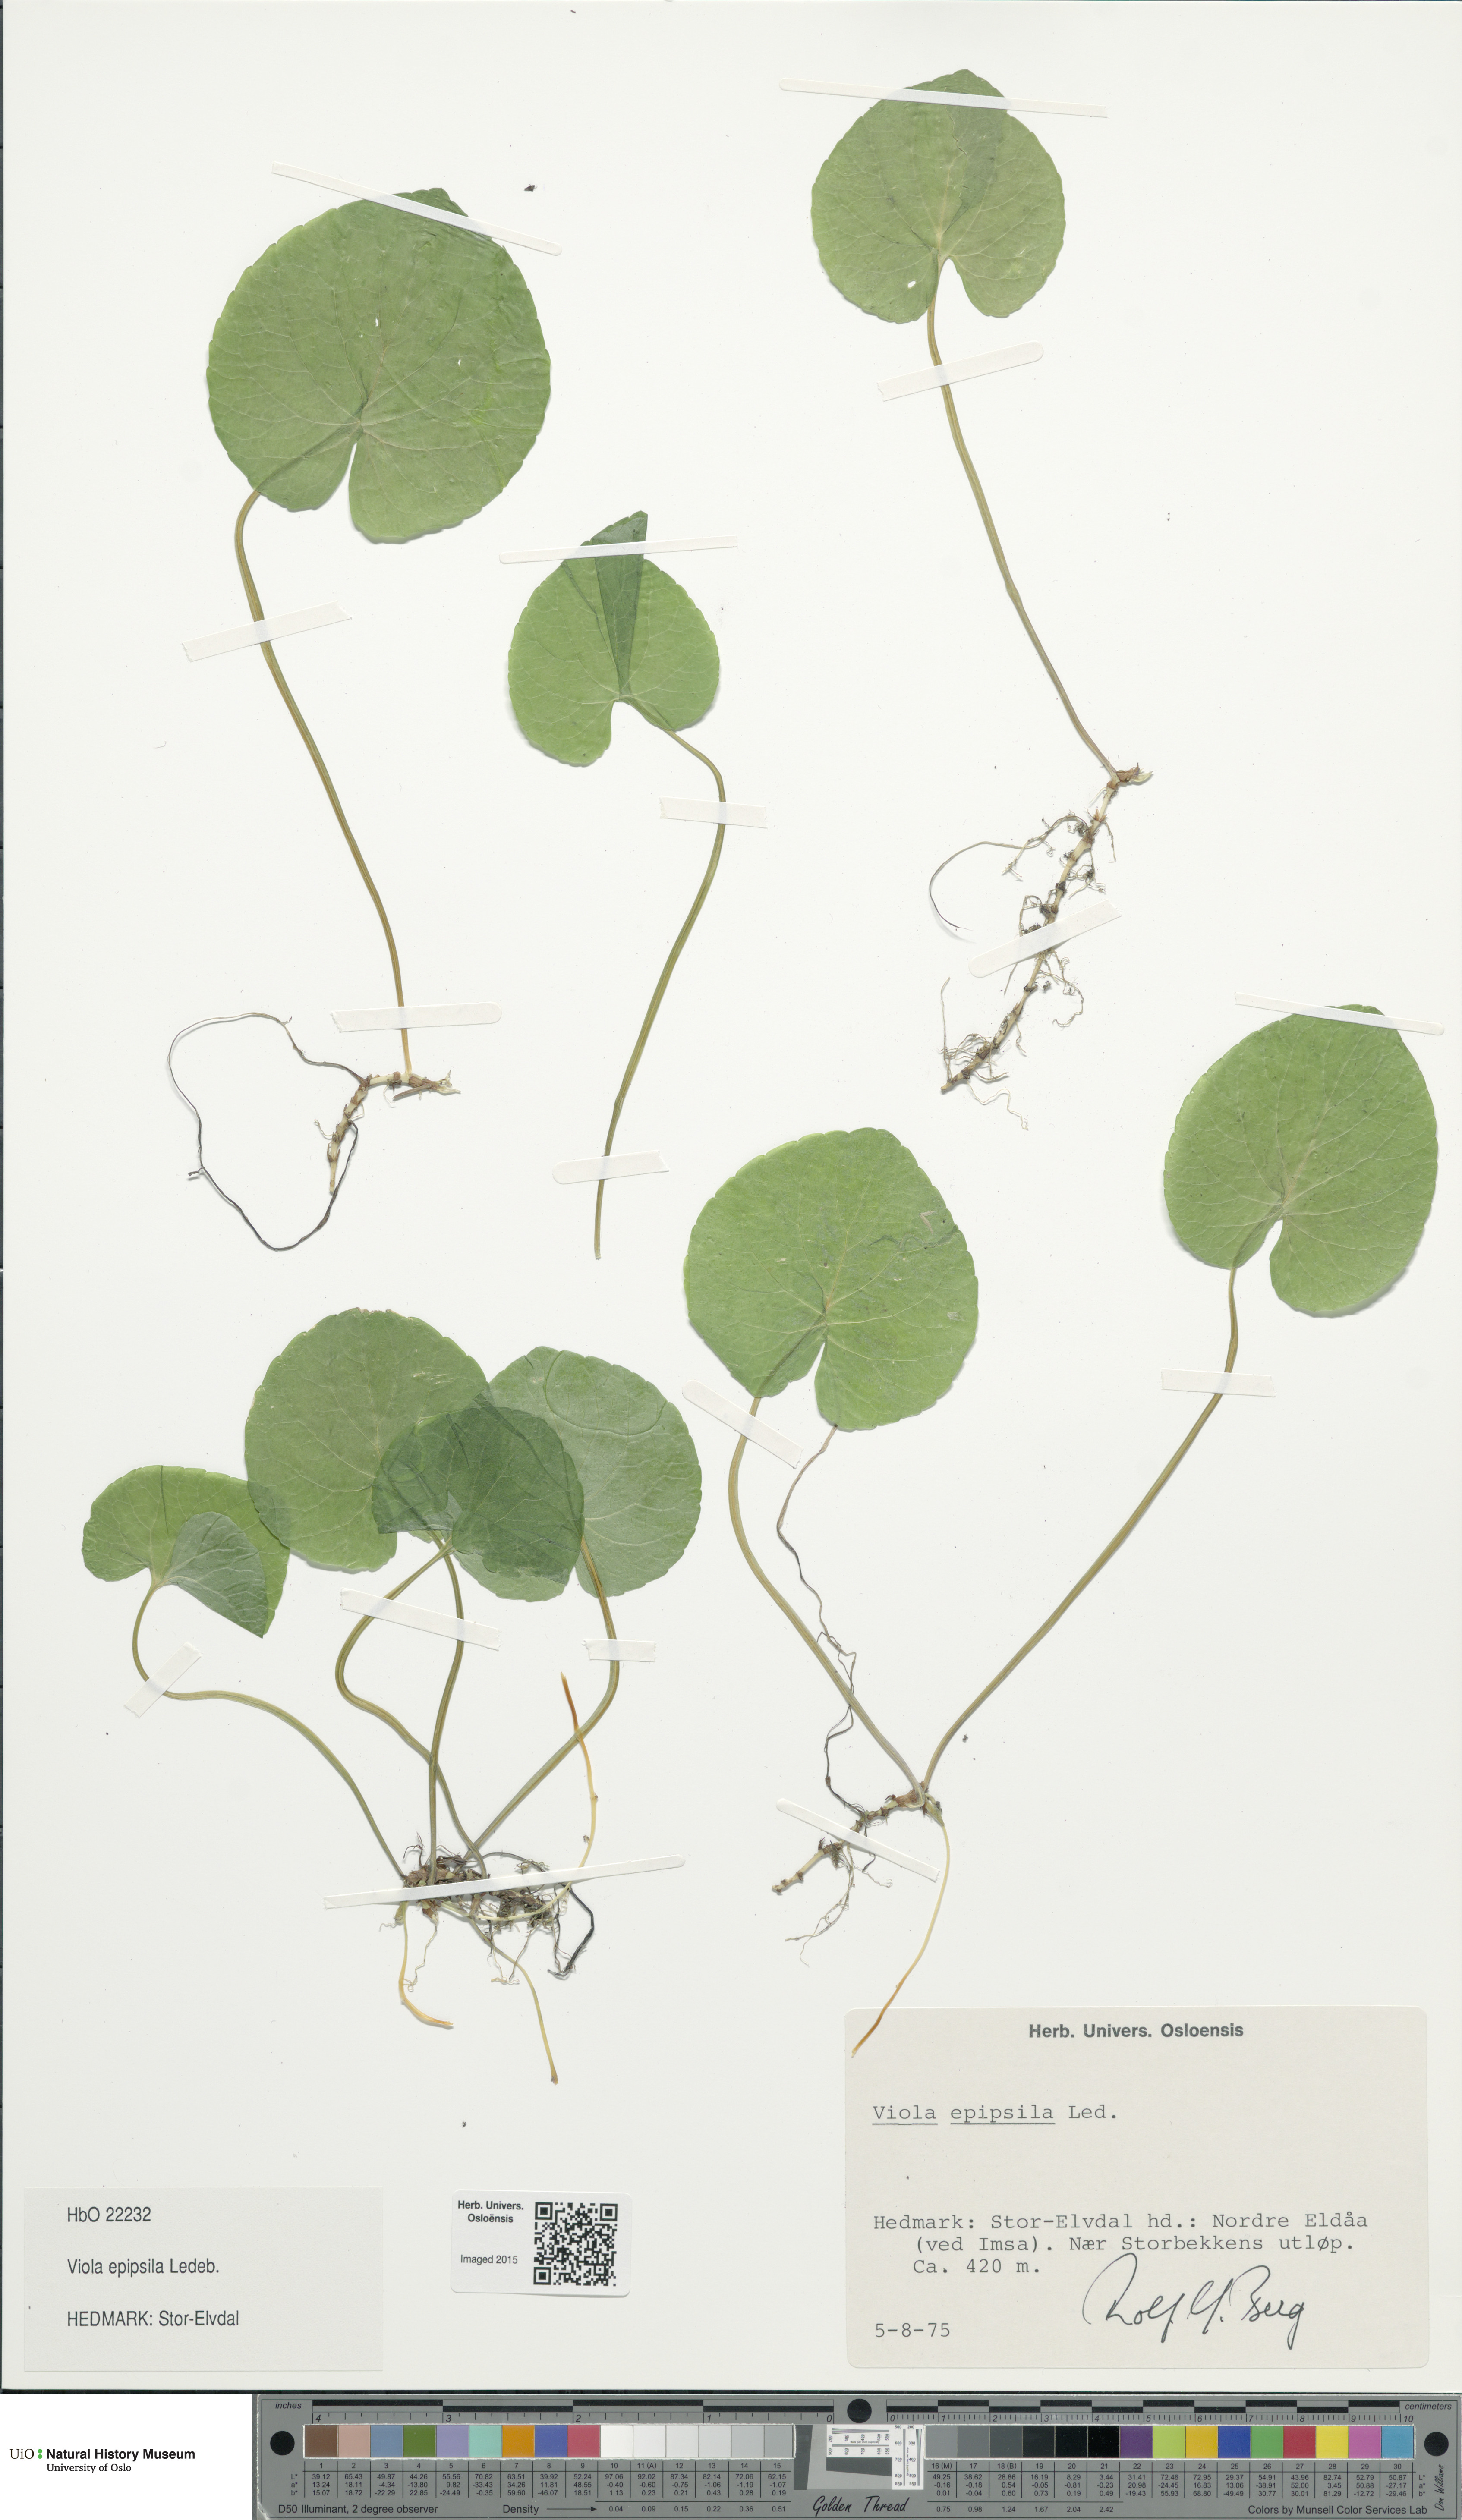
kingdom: Plantae
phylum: Tracheophyta
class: Magnoliopsida
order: Malpighiales
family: Violaceae
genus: Viola
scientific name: Viola epipsila
